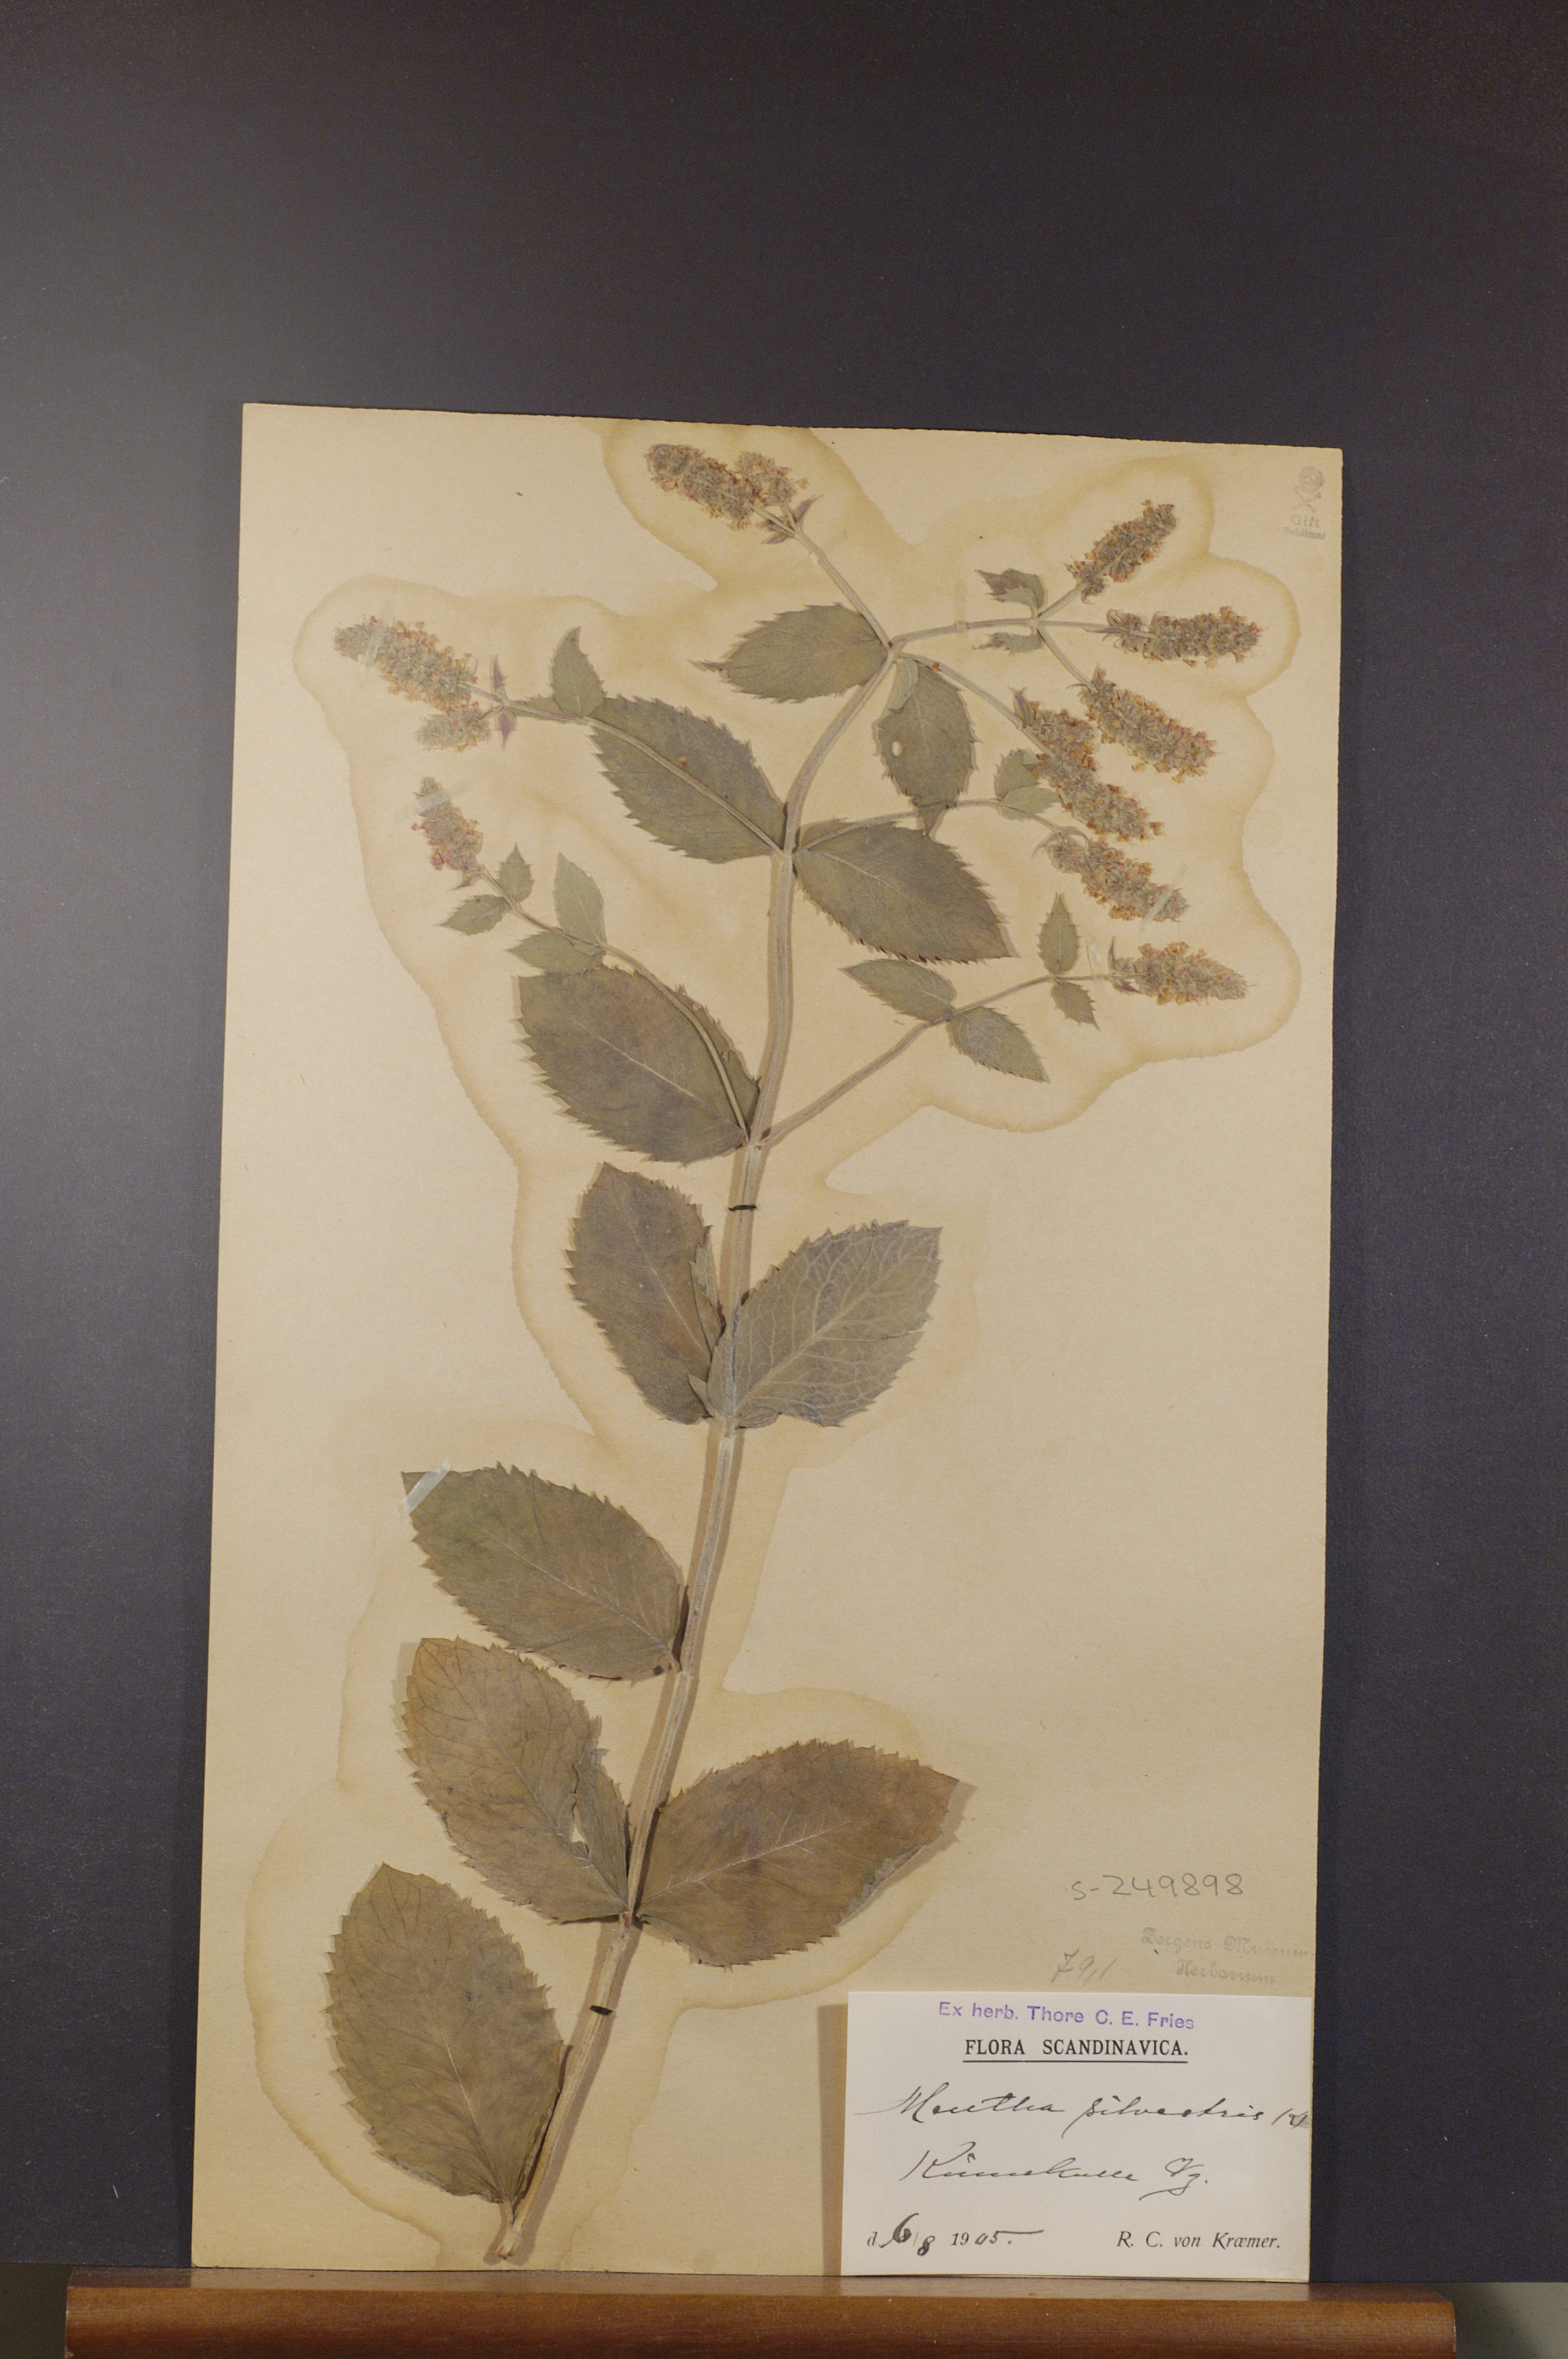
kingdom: Plantae
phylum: Tracheophyta
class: Magnoliopsida
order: Lamiales
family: Lamiaceae
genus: Mentha
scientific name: Mentha longifolia
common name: Horse mint
